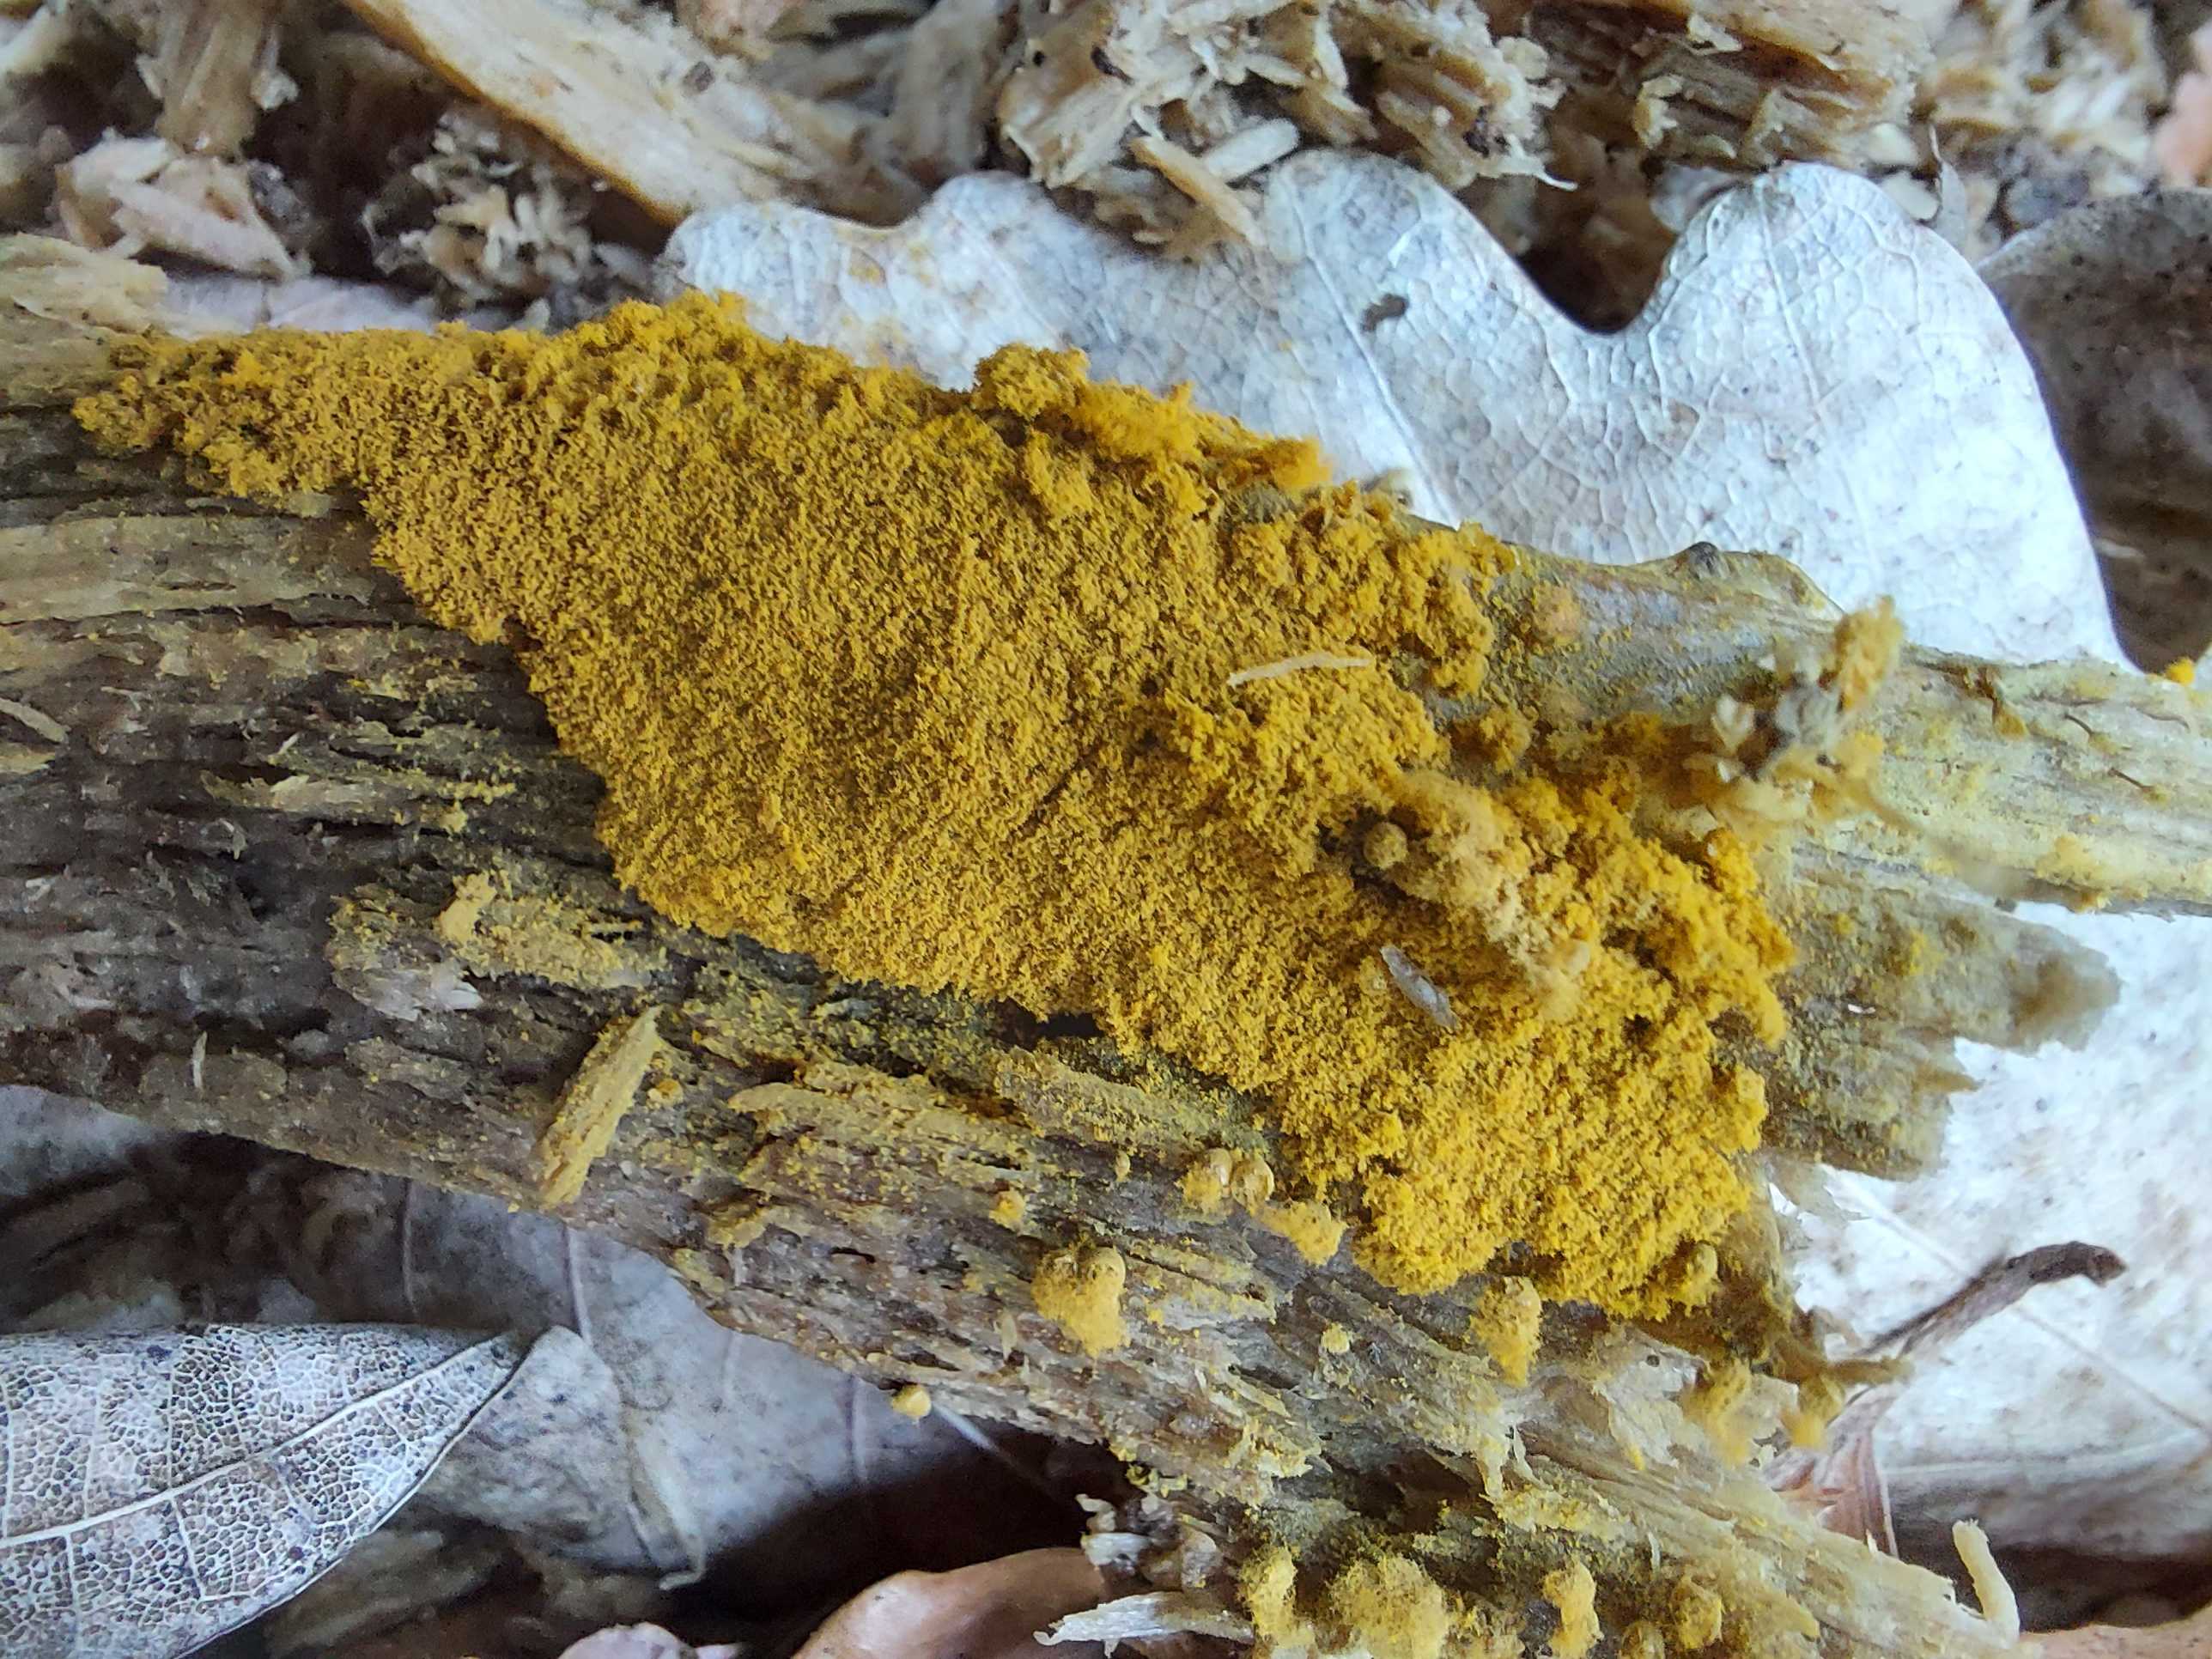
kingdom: Protozoa
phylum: Mycetozoa
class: Myxomycetes
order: Trichiales
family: Trichiaceae
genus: Trichia
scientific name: Trichia scabra
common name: tæppe-hårbold
